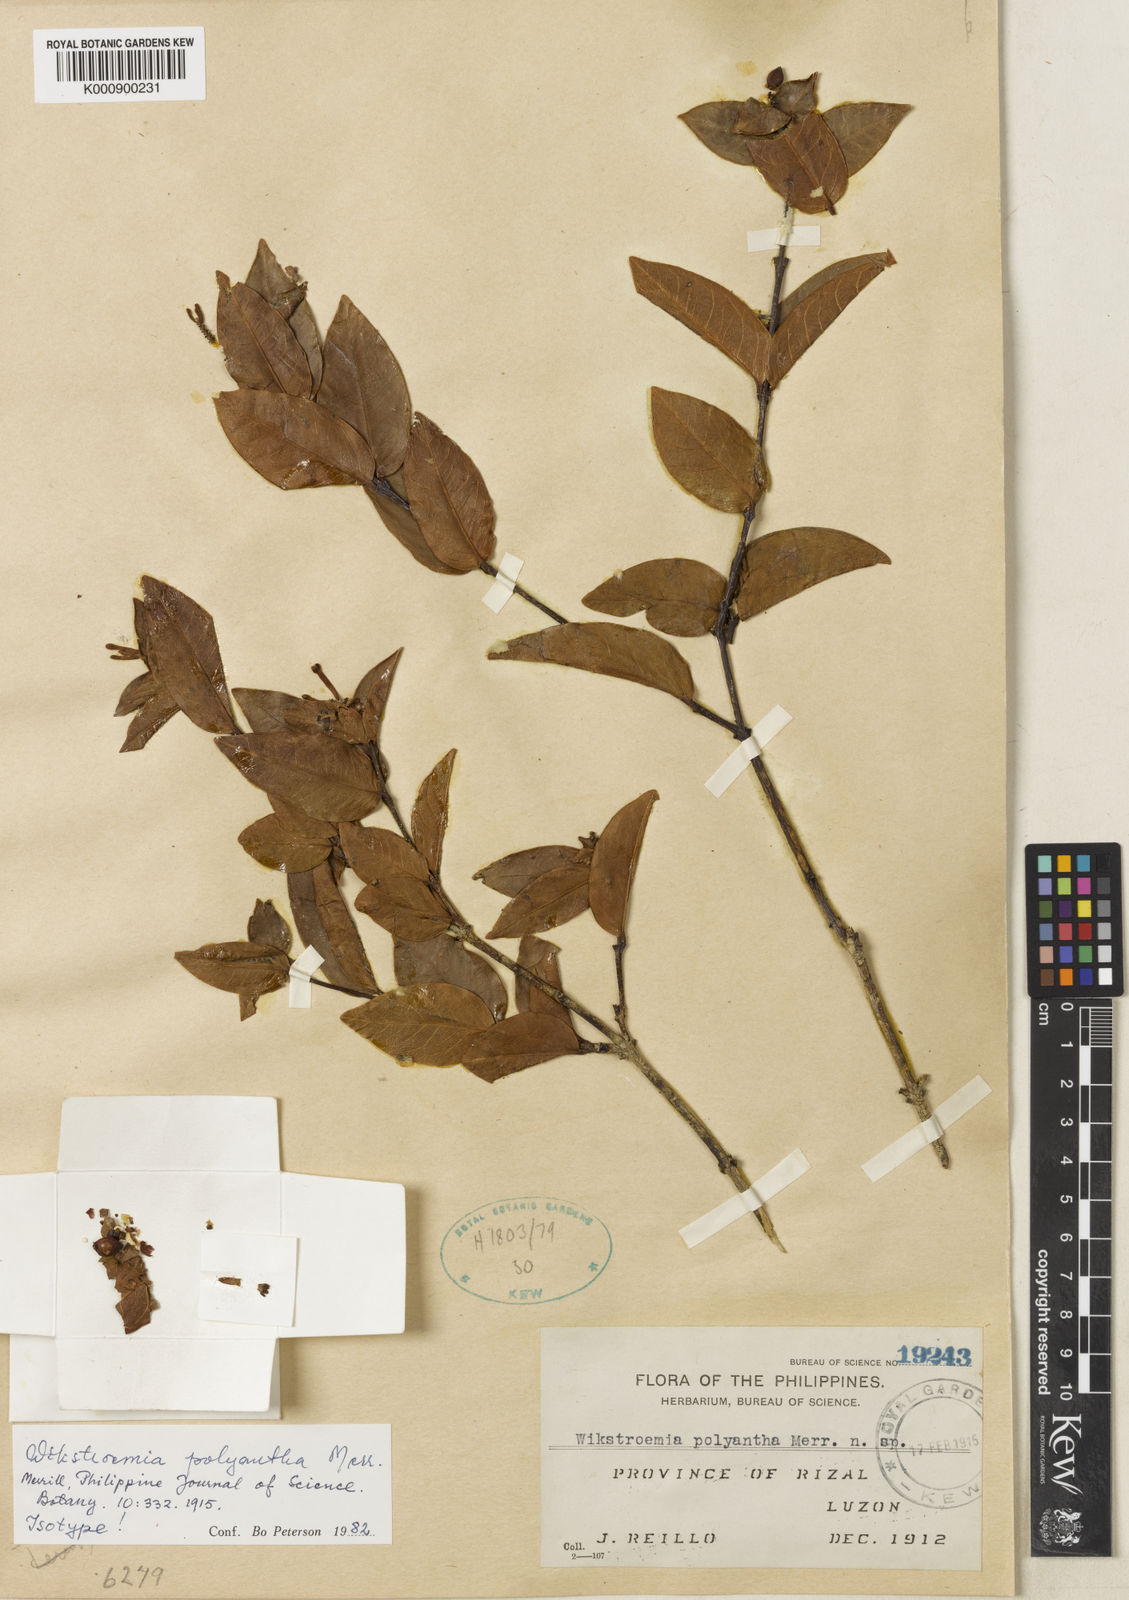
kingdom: Plantae
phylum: Tracheophyta
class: Magnoliopsida
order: Malvales
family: Thymelaeaceae
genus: Wikstroemia
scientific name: Wikstroemia polyantha
